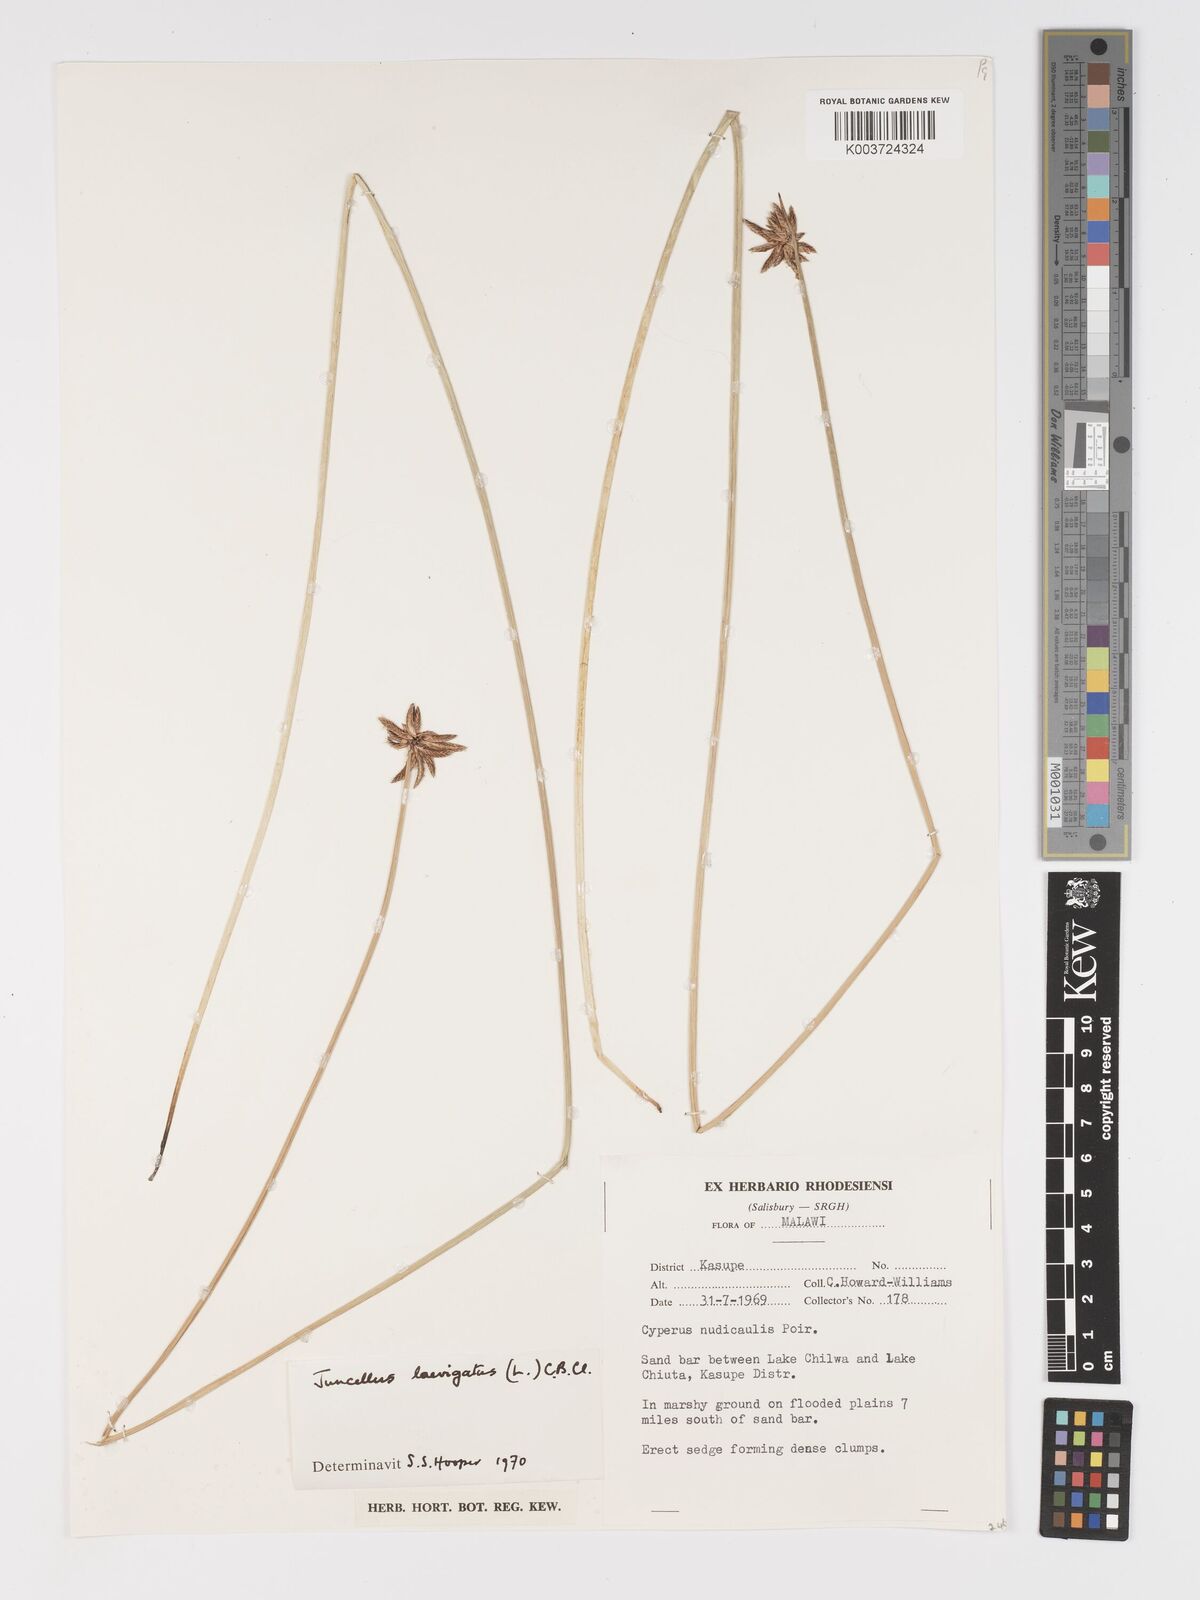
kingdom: Plantae
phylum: Tracheophyta
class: Liliopsida
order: Poales
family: Cyperaceae
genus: Cyperus
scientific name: Cyperus laevigatus
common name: Smooth flat sedge
